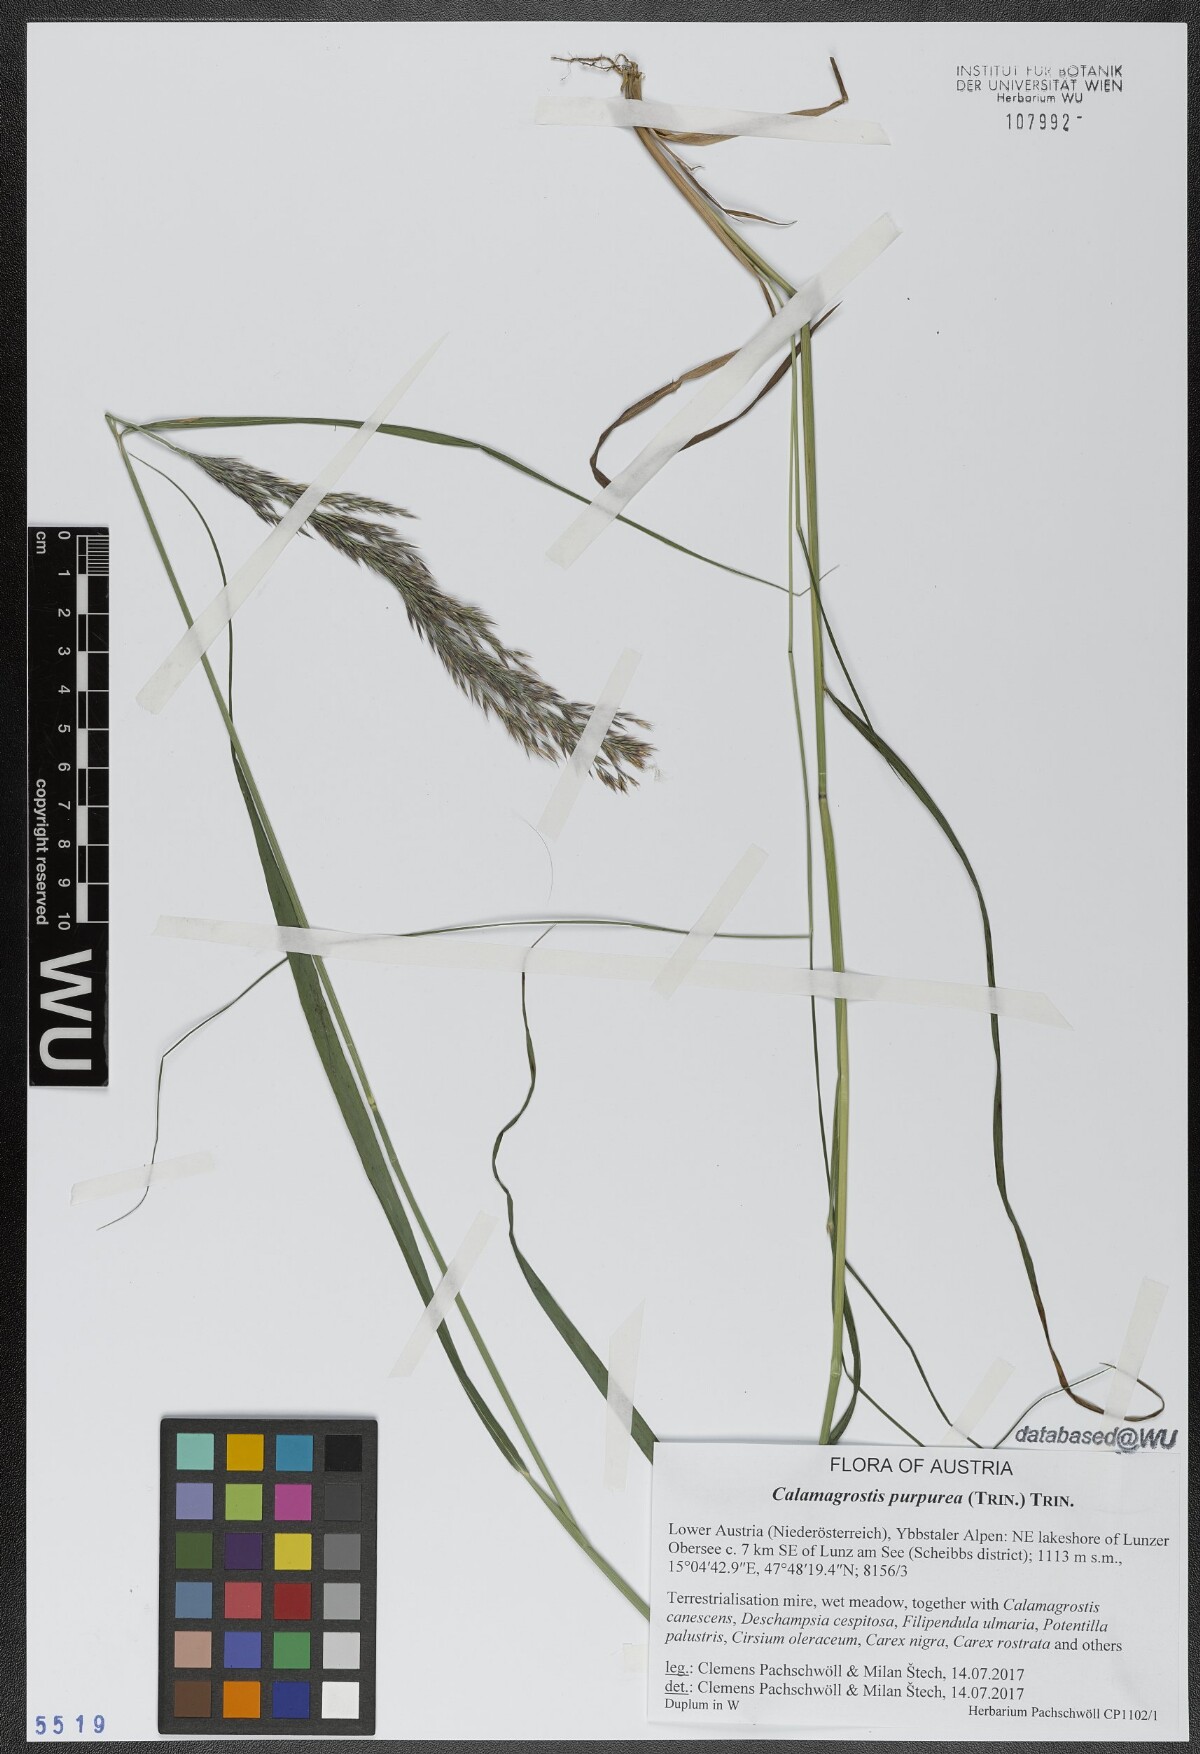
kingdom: Plantae
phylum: Tracheophyta
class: Liliopsida
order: Poales
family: Poaceae
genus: Calamagrostis
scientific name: Calamagrostis purpurea
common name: Scandinavian small-reed
